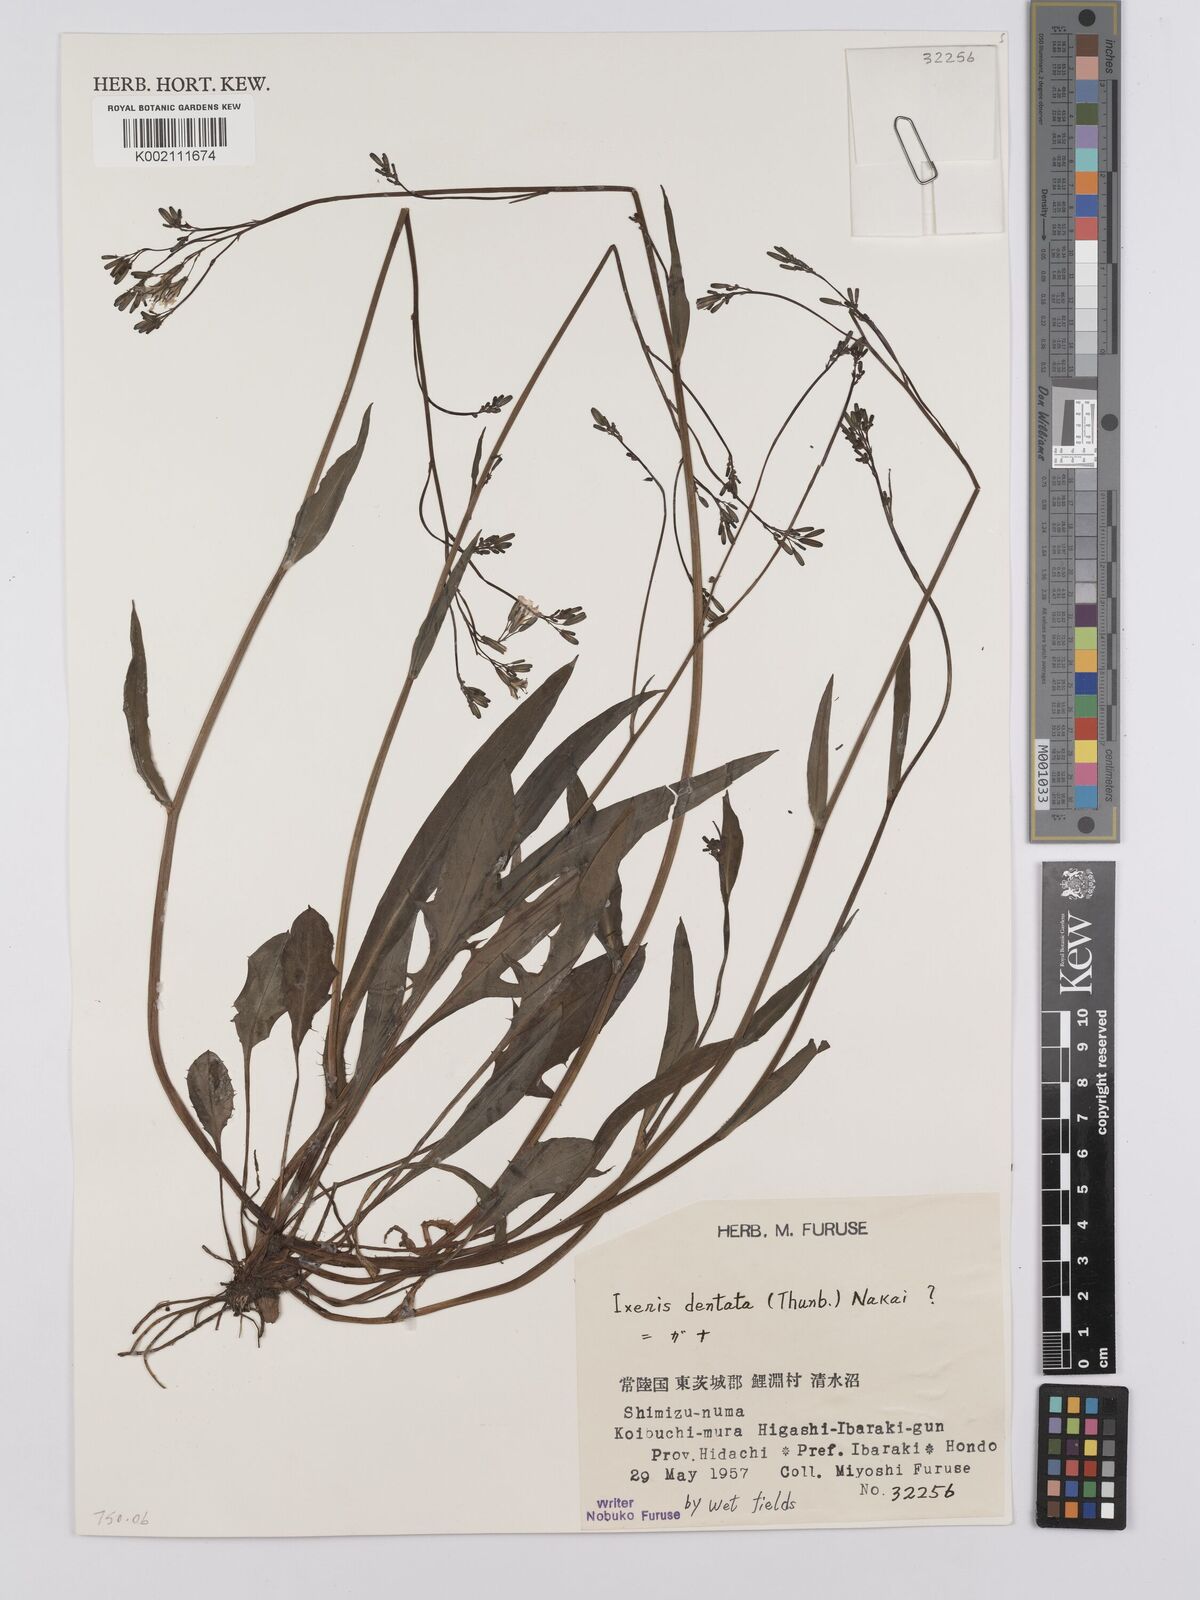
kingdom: Plantae
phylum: Tracheophyta
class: Magnoliopsida
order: Asterales
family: Asteraceae
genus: Ixeridium
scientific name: Ixeridium dentatum
